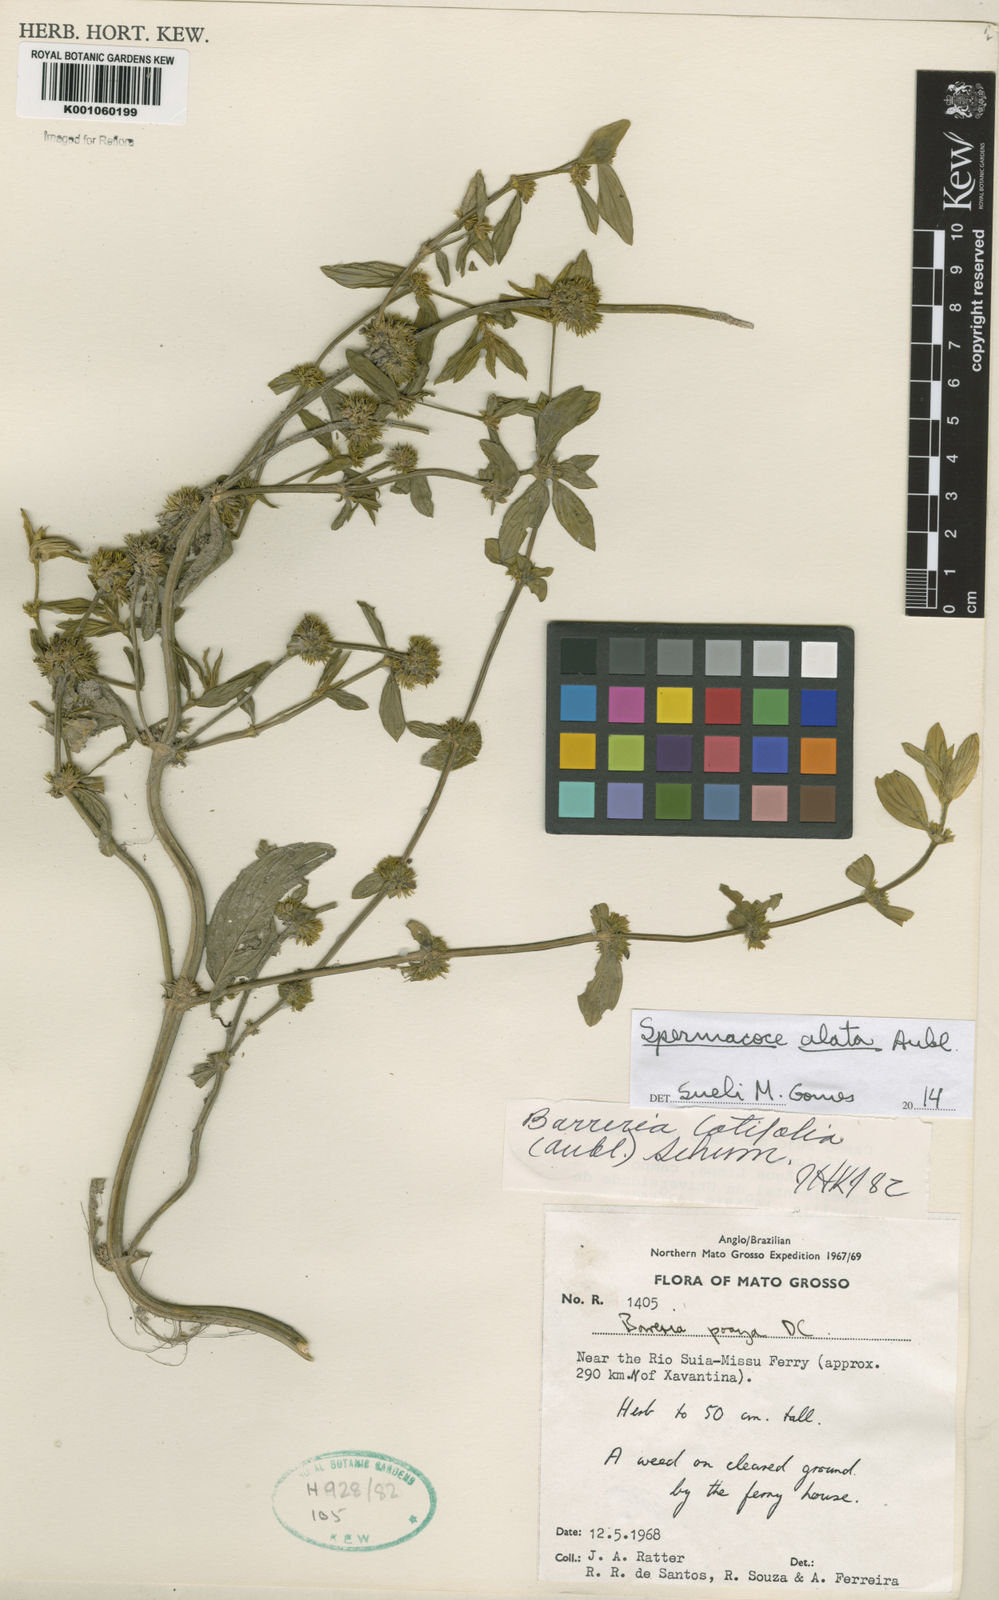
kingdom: Plantae
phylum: Tracheophyta
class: Magnoliopsida
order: Gentianales
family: Rubiaceae
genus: Spermacoce
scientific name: Spermacoce
